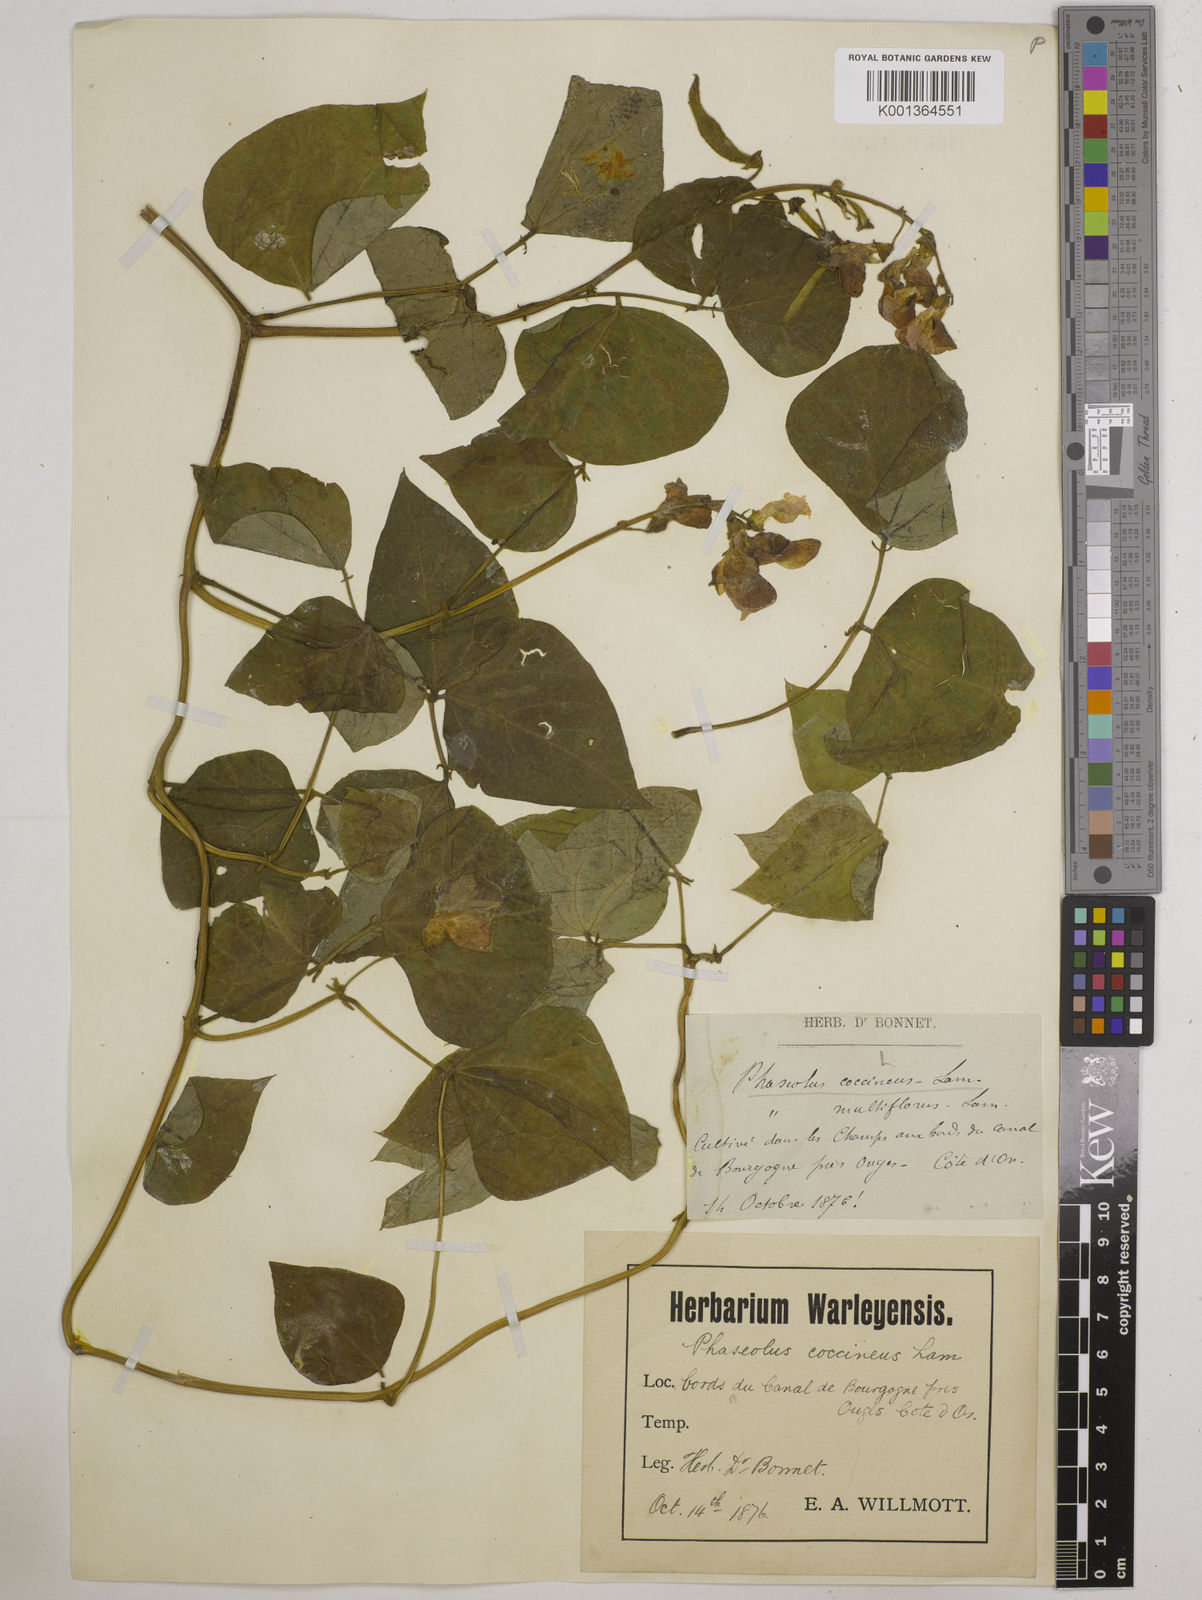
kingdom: Plantae
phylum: Tracheophyta
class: Magnoliopsida
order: Fabales
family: Fabaceae
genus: Phaseolus
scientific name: Phaseolus coccineus
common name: Runner bean
